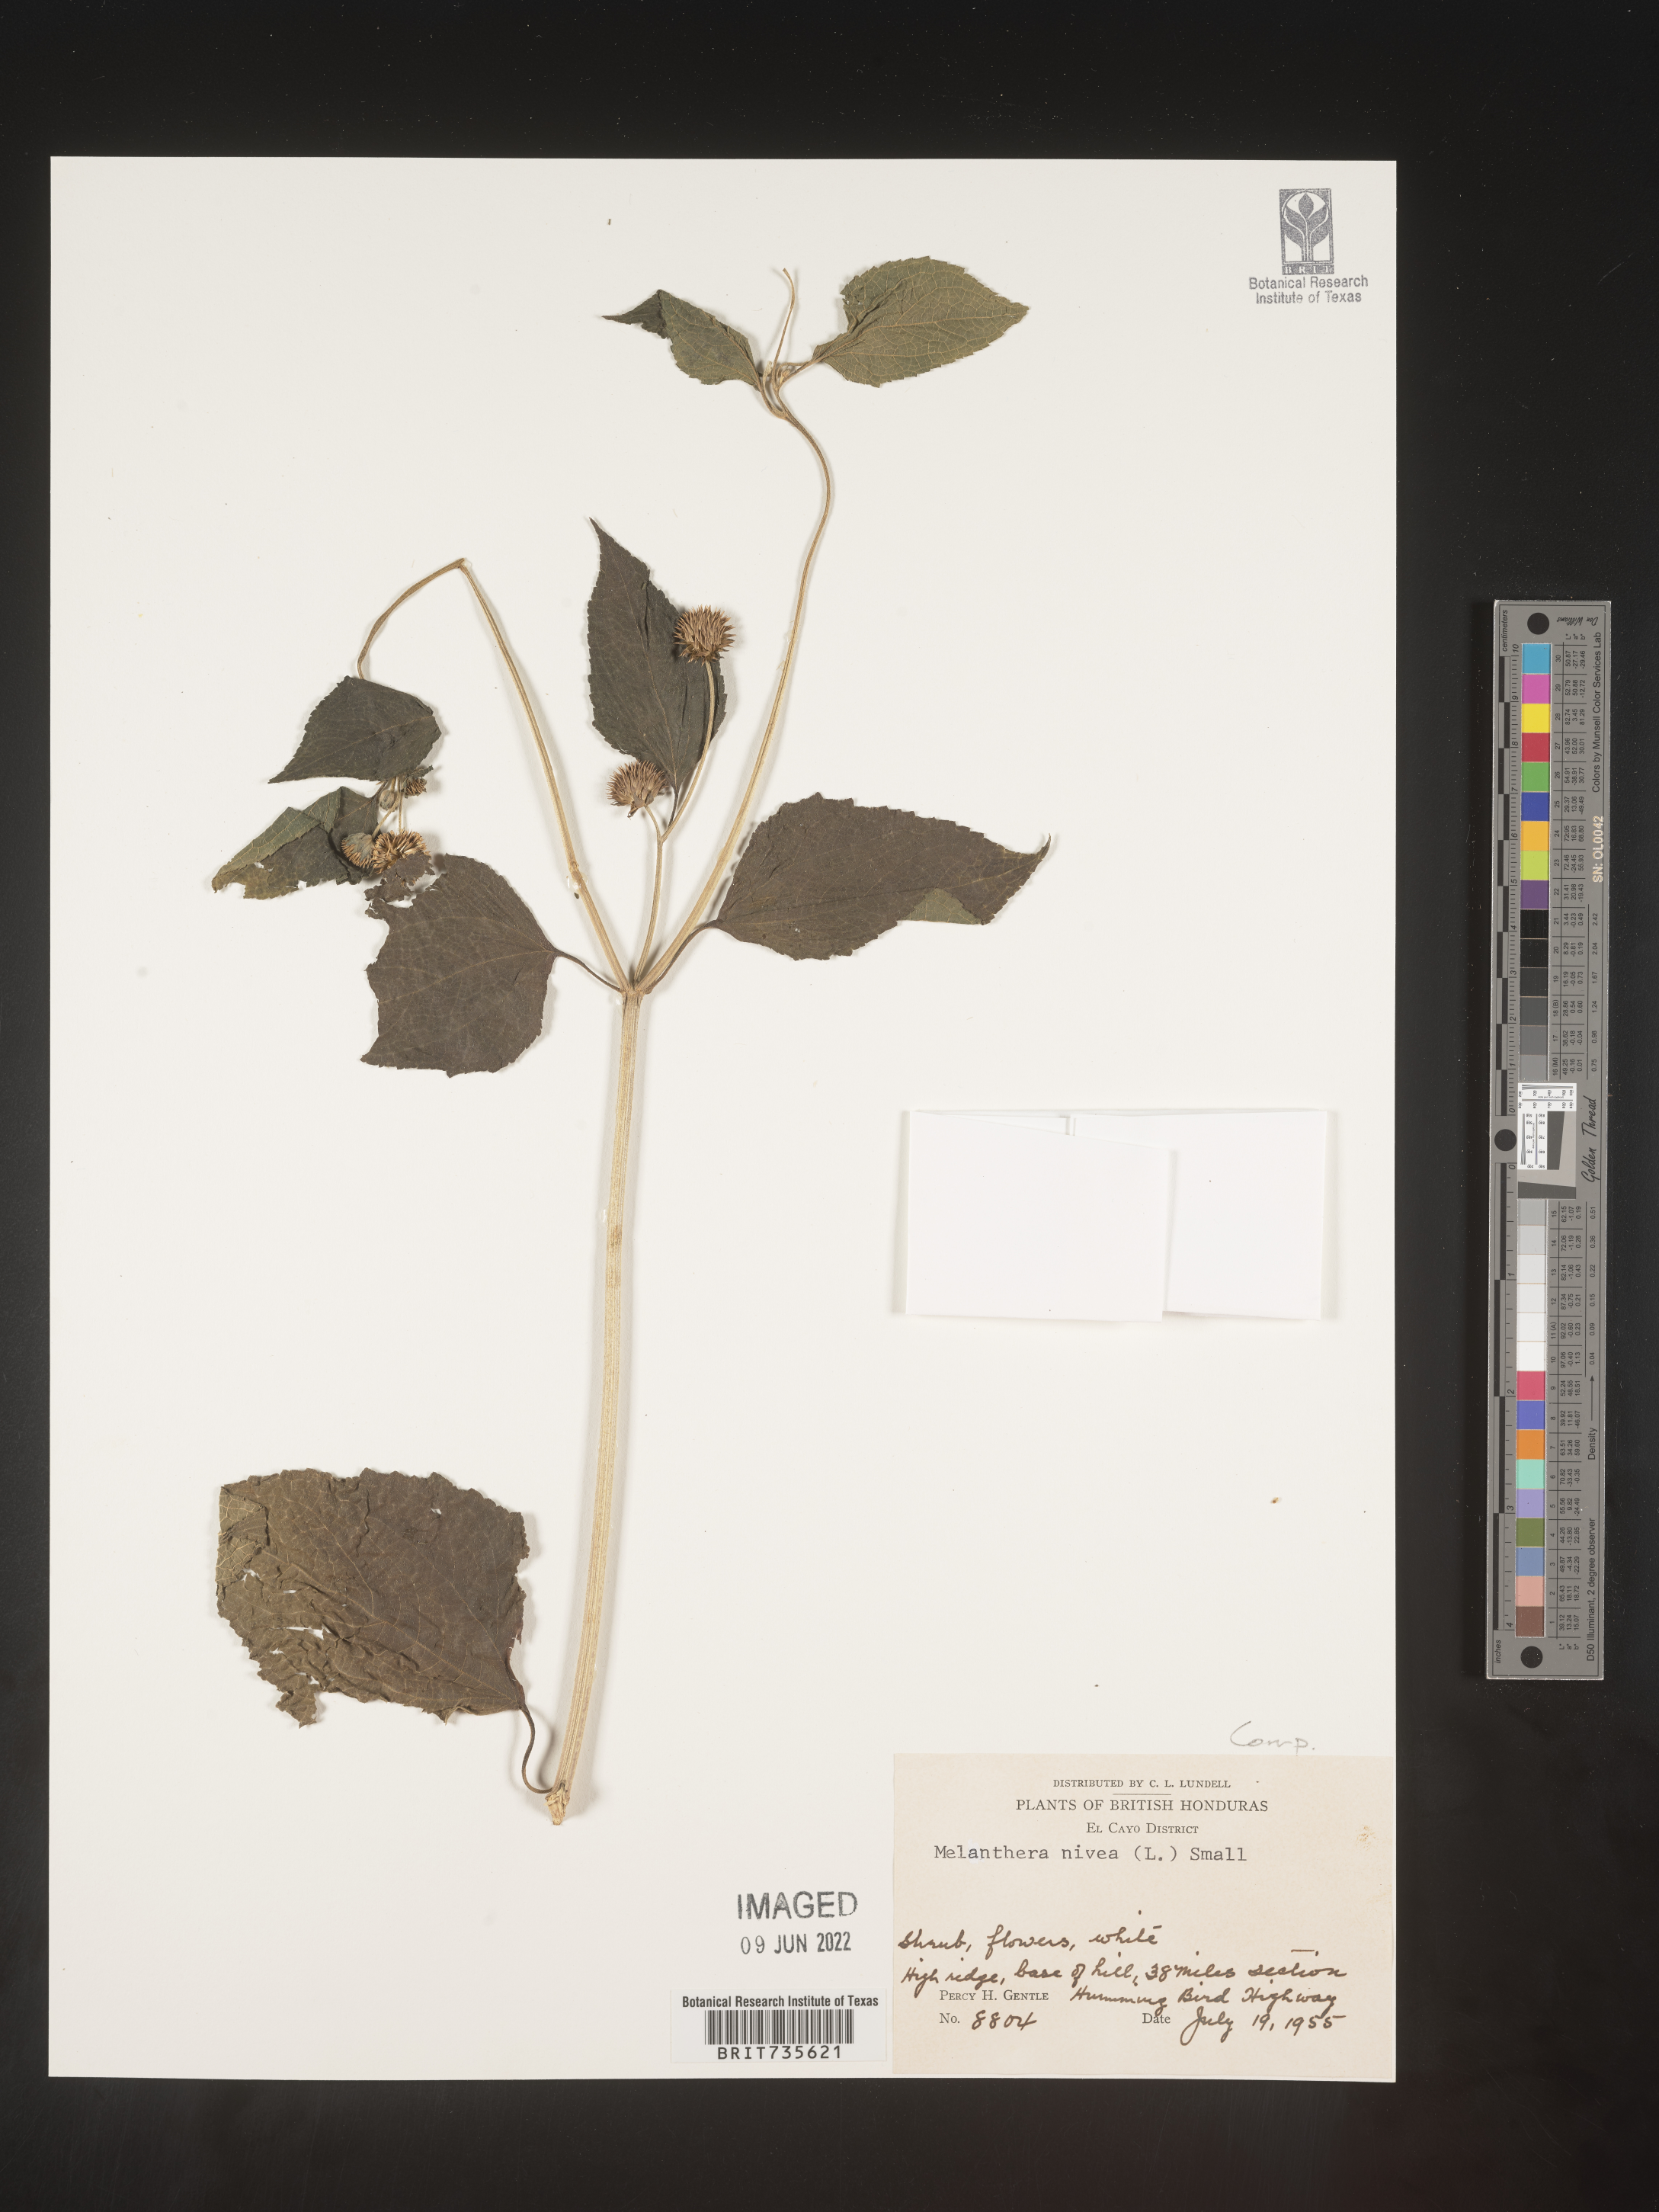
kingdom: Plantae
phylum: Tracheophyta
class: Magnoliopsida
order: Asterales
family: Asteraceae
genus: Melanthera
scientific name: Melanthera
